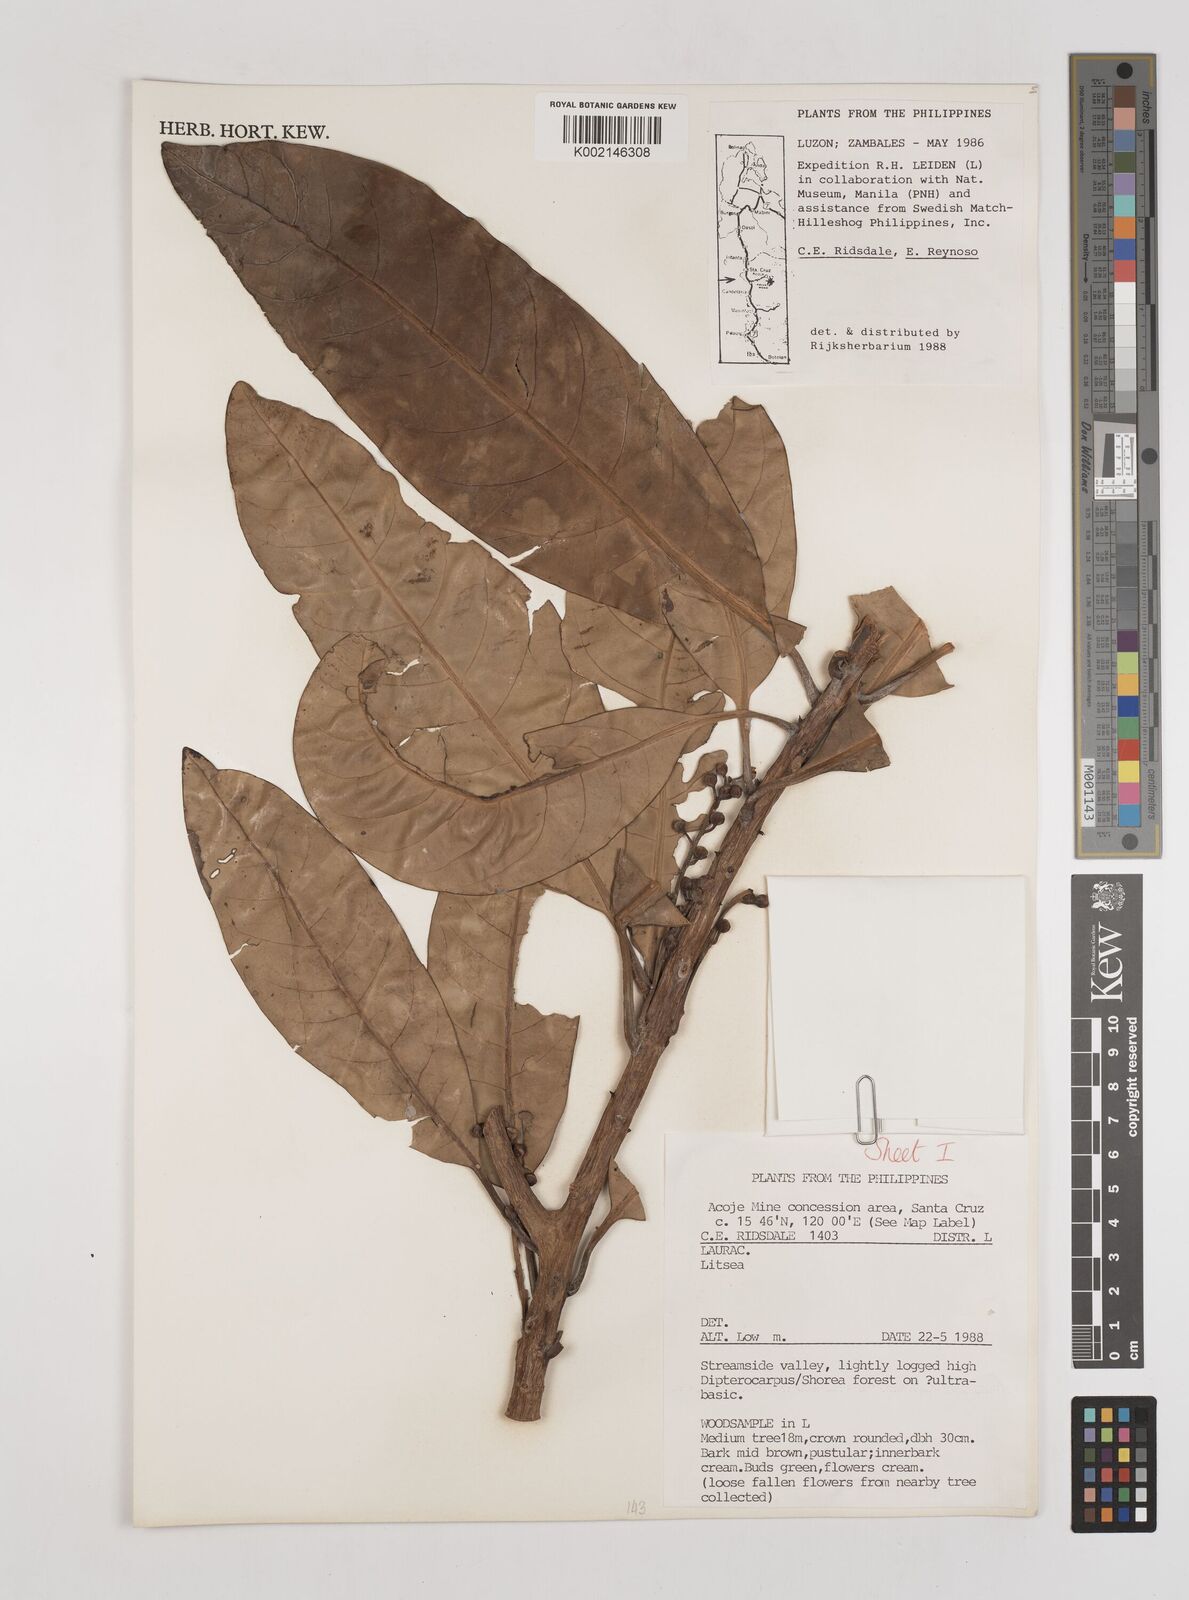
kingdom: Plantae
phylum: Tracheophyta
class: Magnoliopsida
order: Laurales
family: Lauraceae
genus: Litsea
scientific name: Litsea
